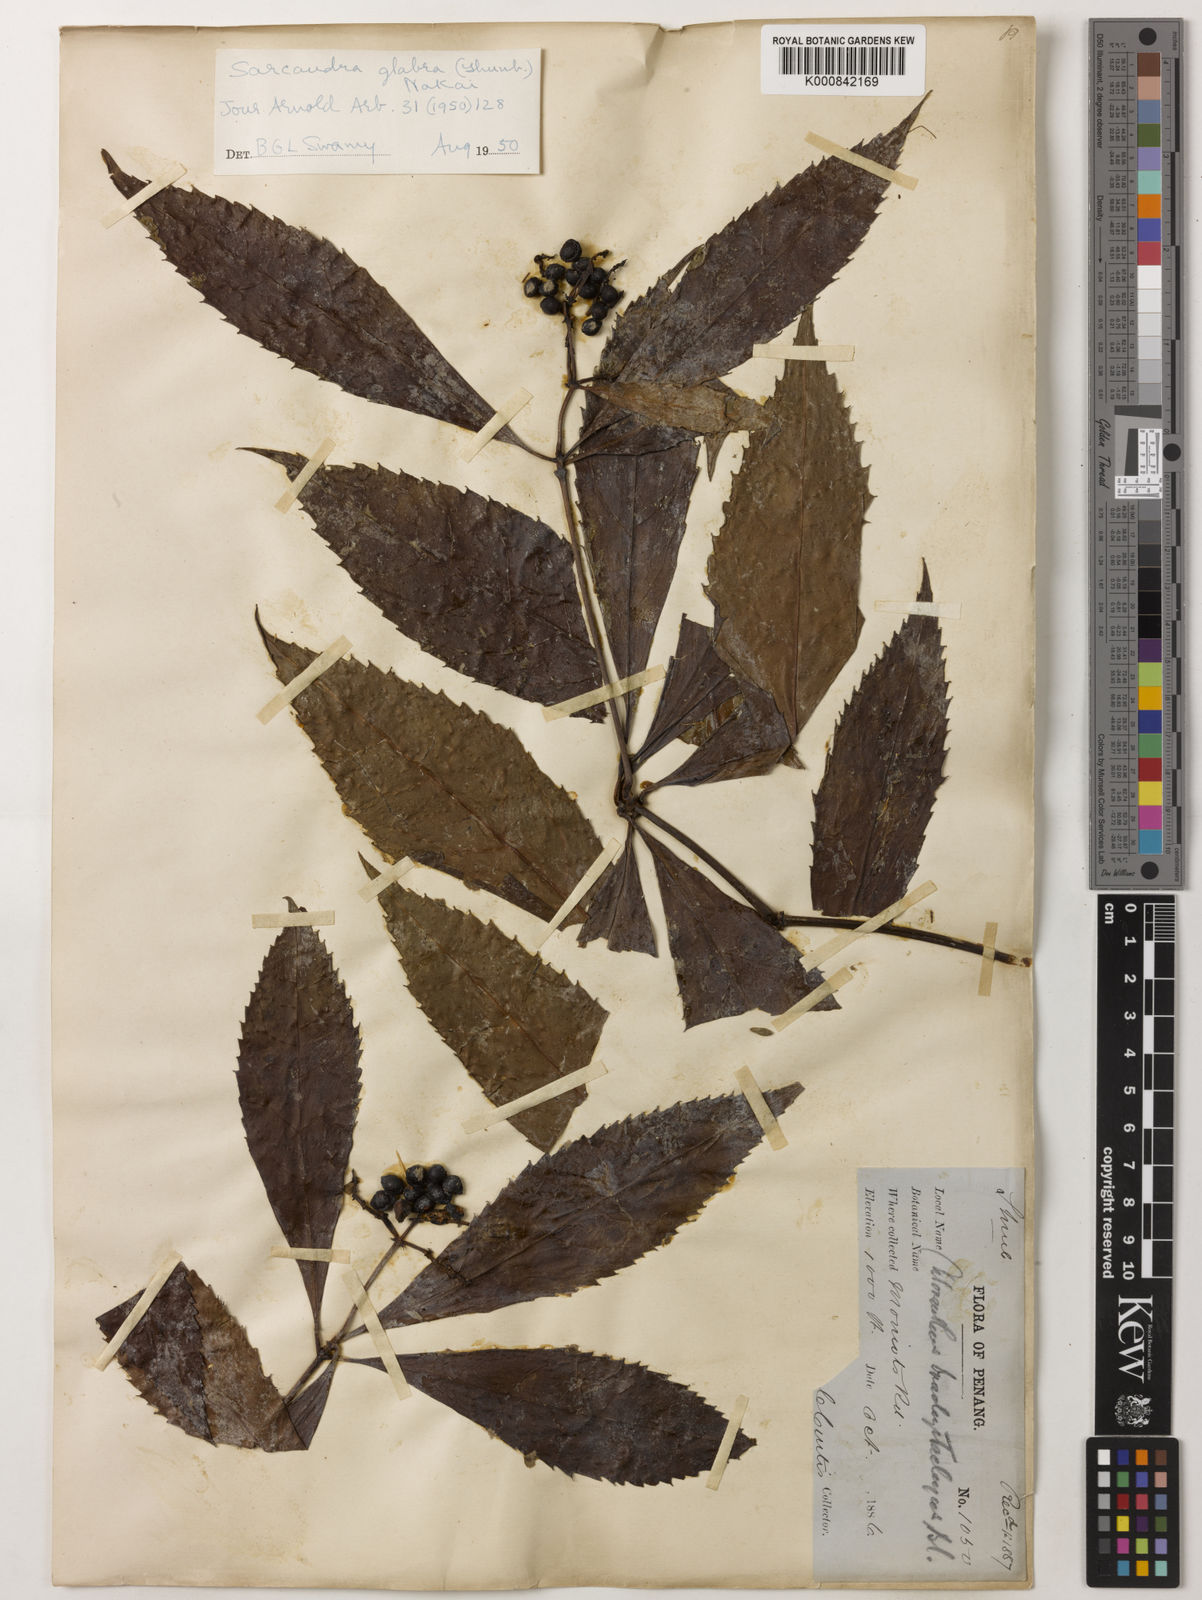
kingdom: Plantae
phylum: Tracheophyta
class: Magnoliopsida
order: Chloranthales
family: Chloranthaceae
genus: Sarcandra
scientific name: Sarcandra glabra
